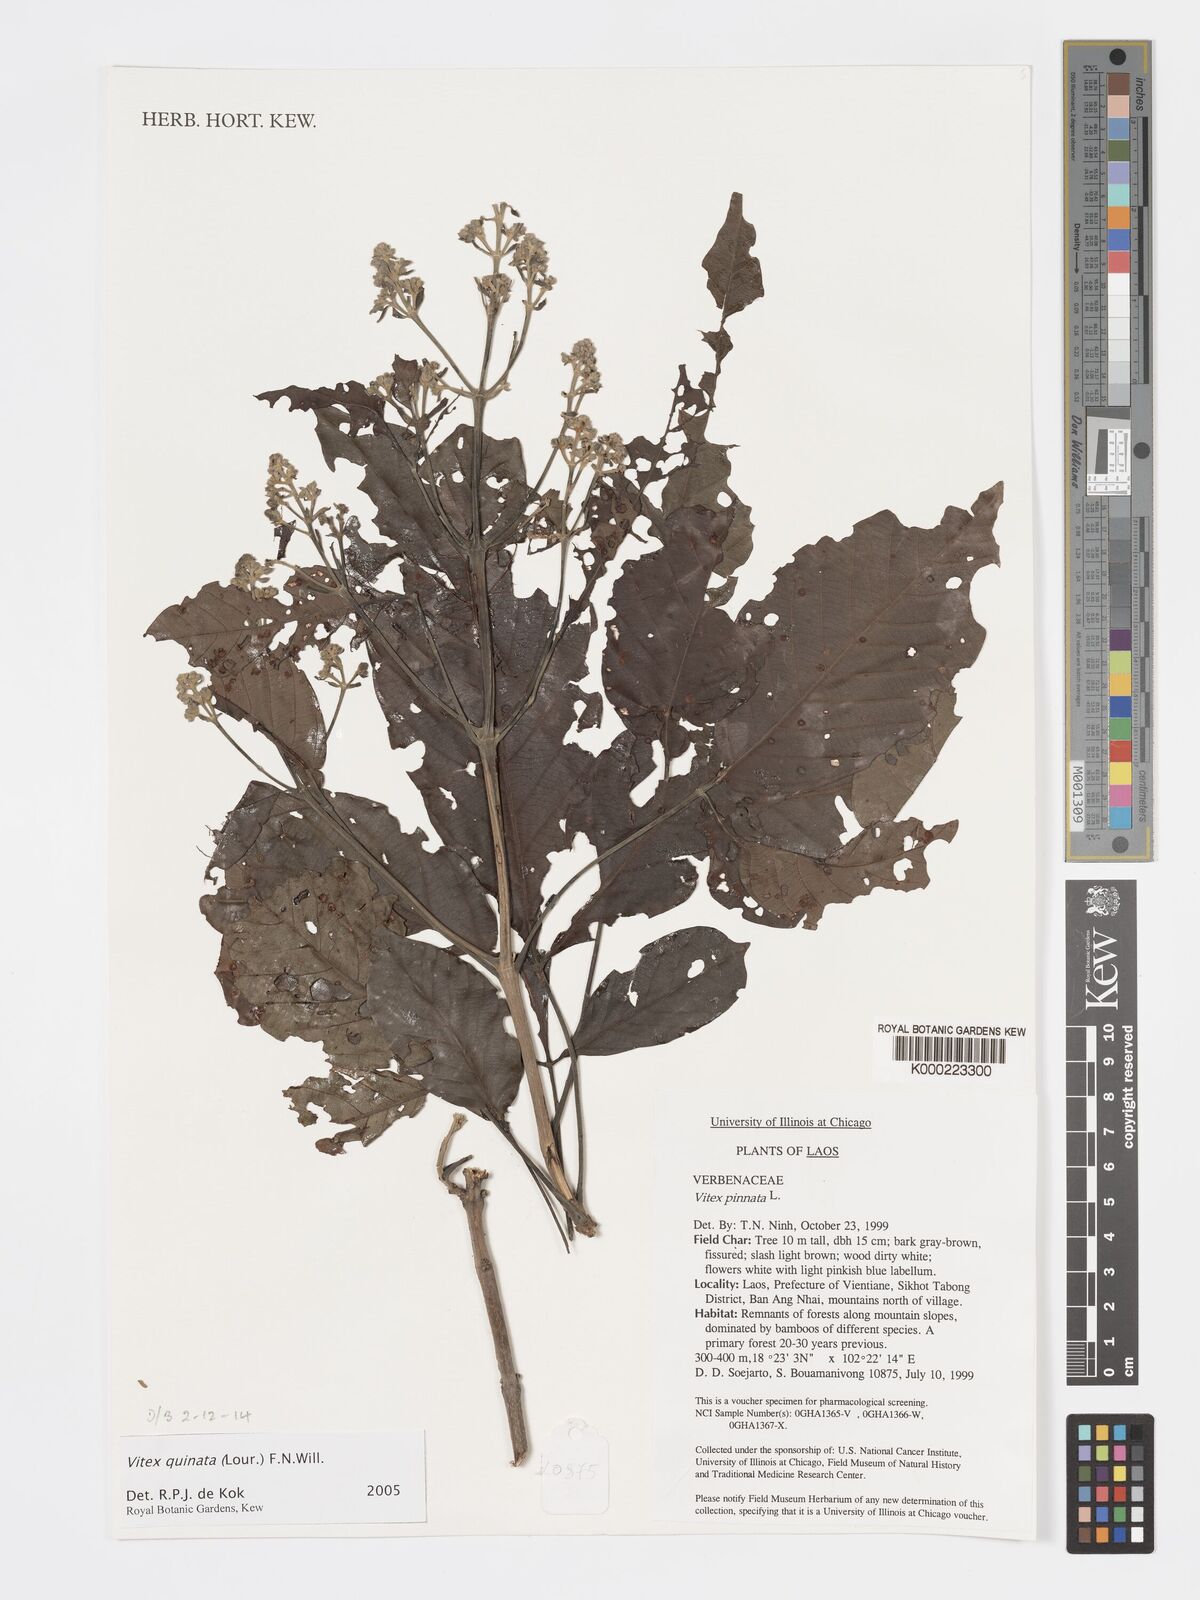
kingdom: Plantae
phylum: Tracheophyta
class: Magnoliopsida
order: Lamiales
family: Lamiaceae
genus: Vitex
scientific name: Vitex pinnata
